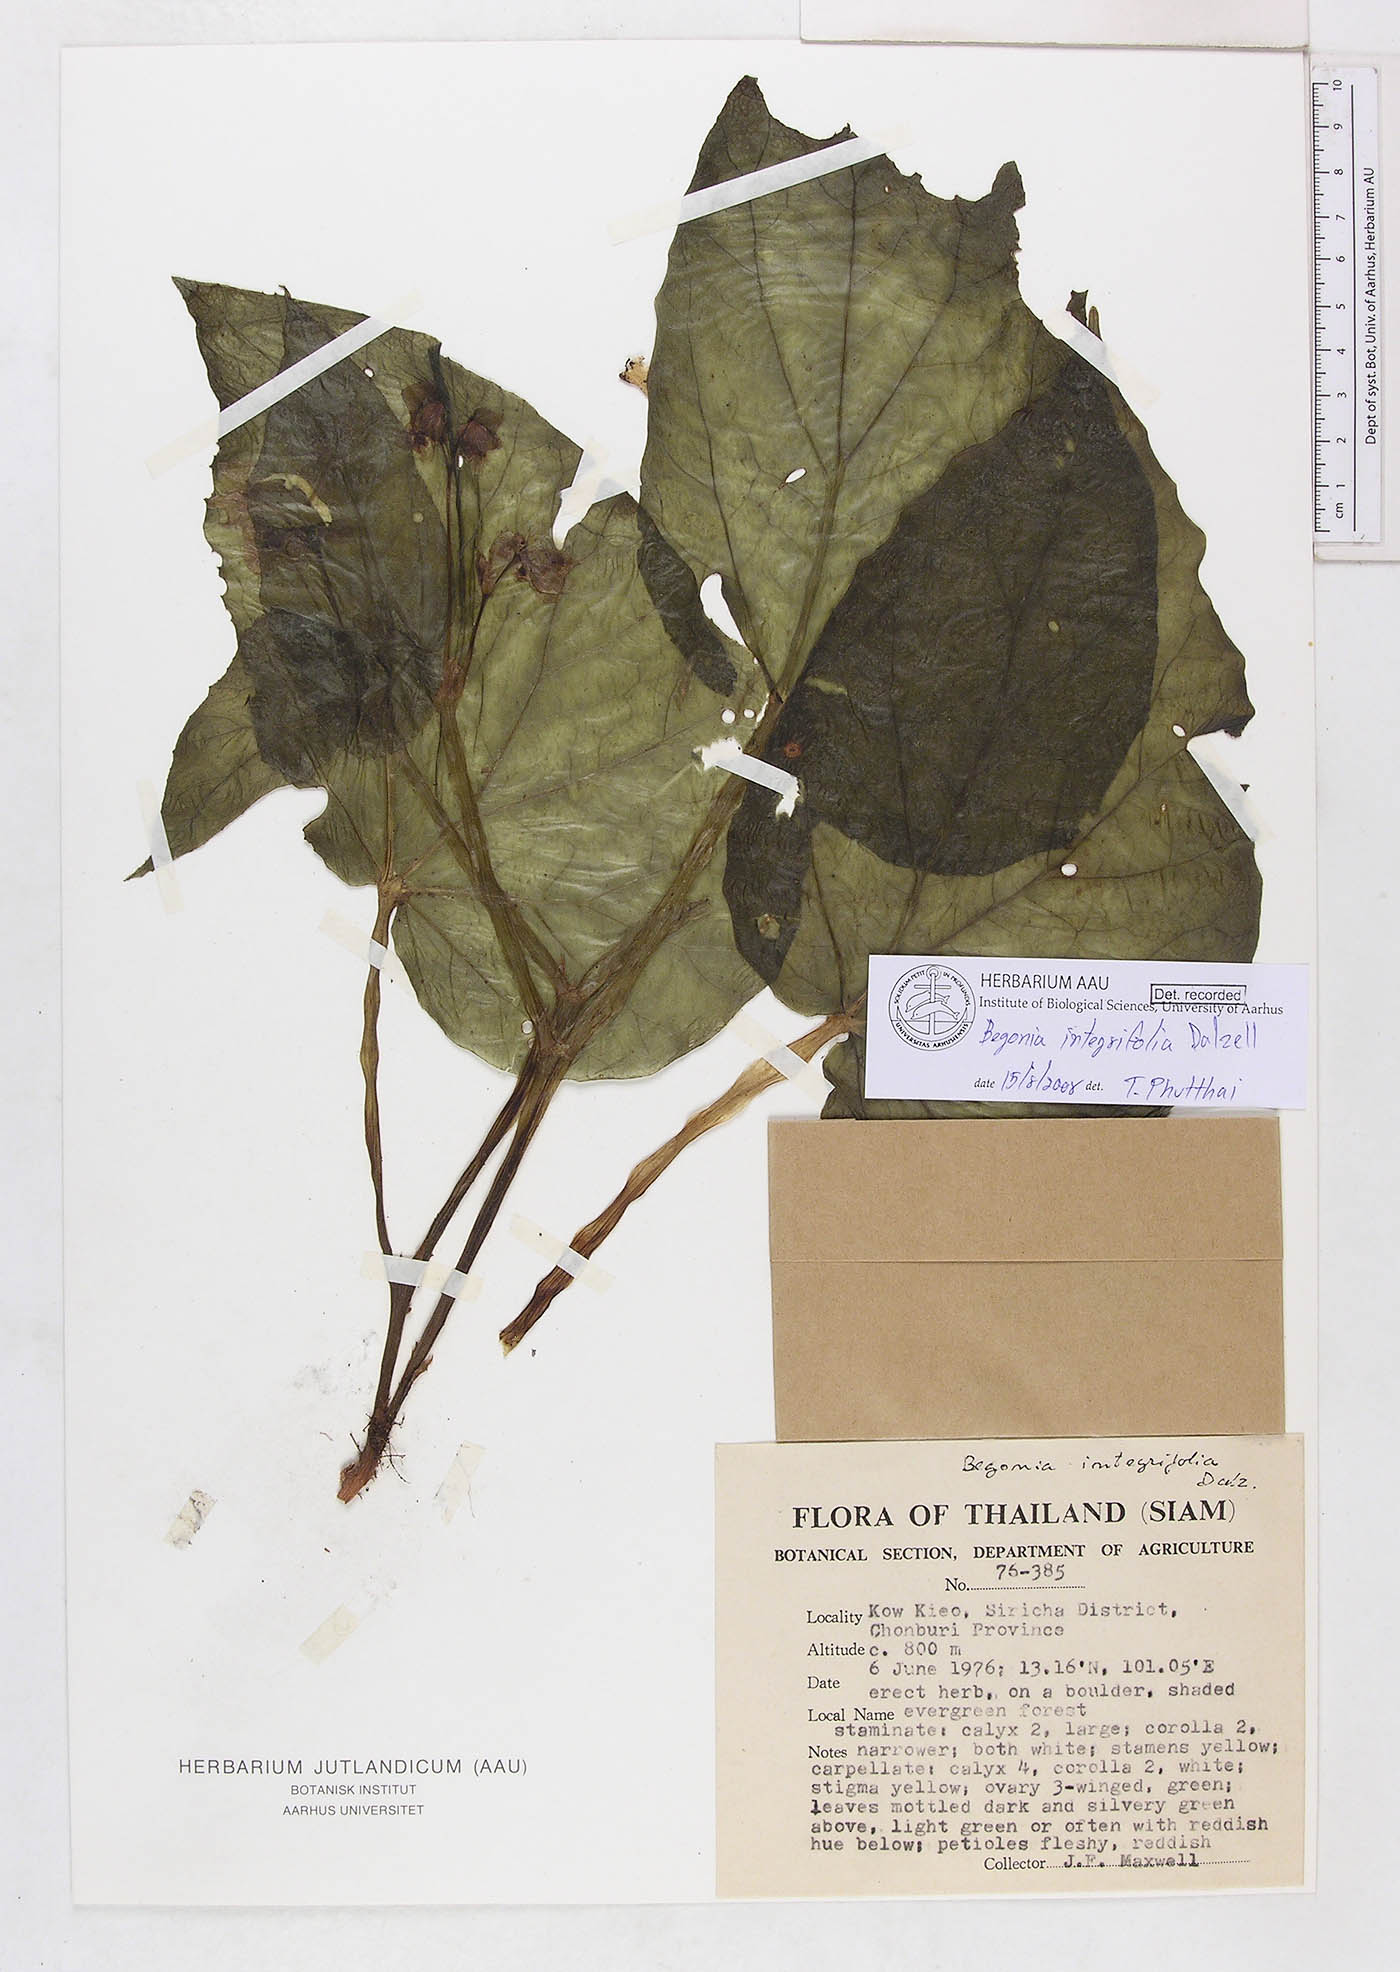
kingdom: Plantae
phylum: Tracheophyta
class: Magnoliopsida
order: Cucurbitales
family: Begoniaceae
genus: Begonia
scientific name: Begonia integrifolia
